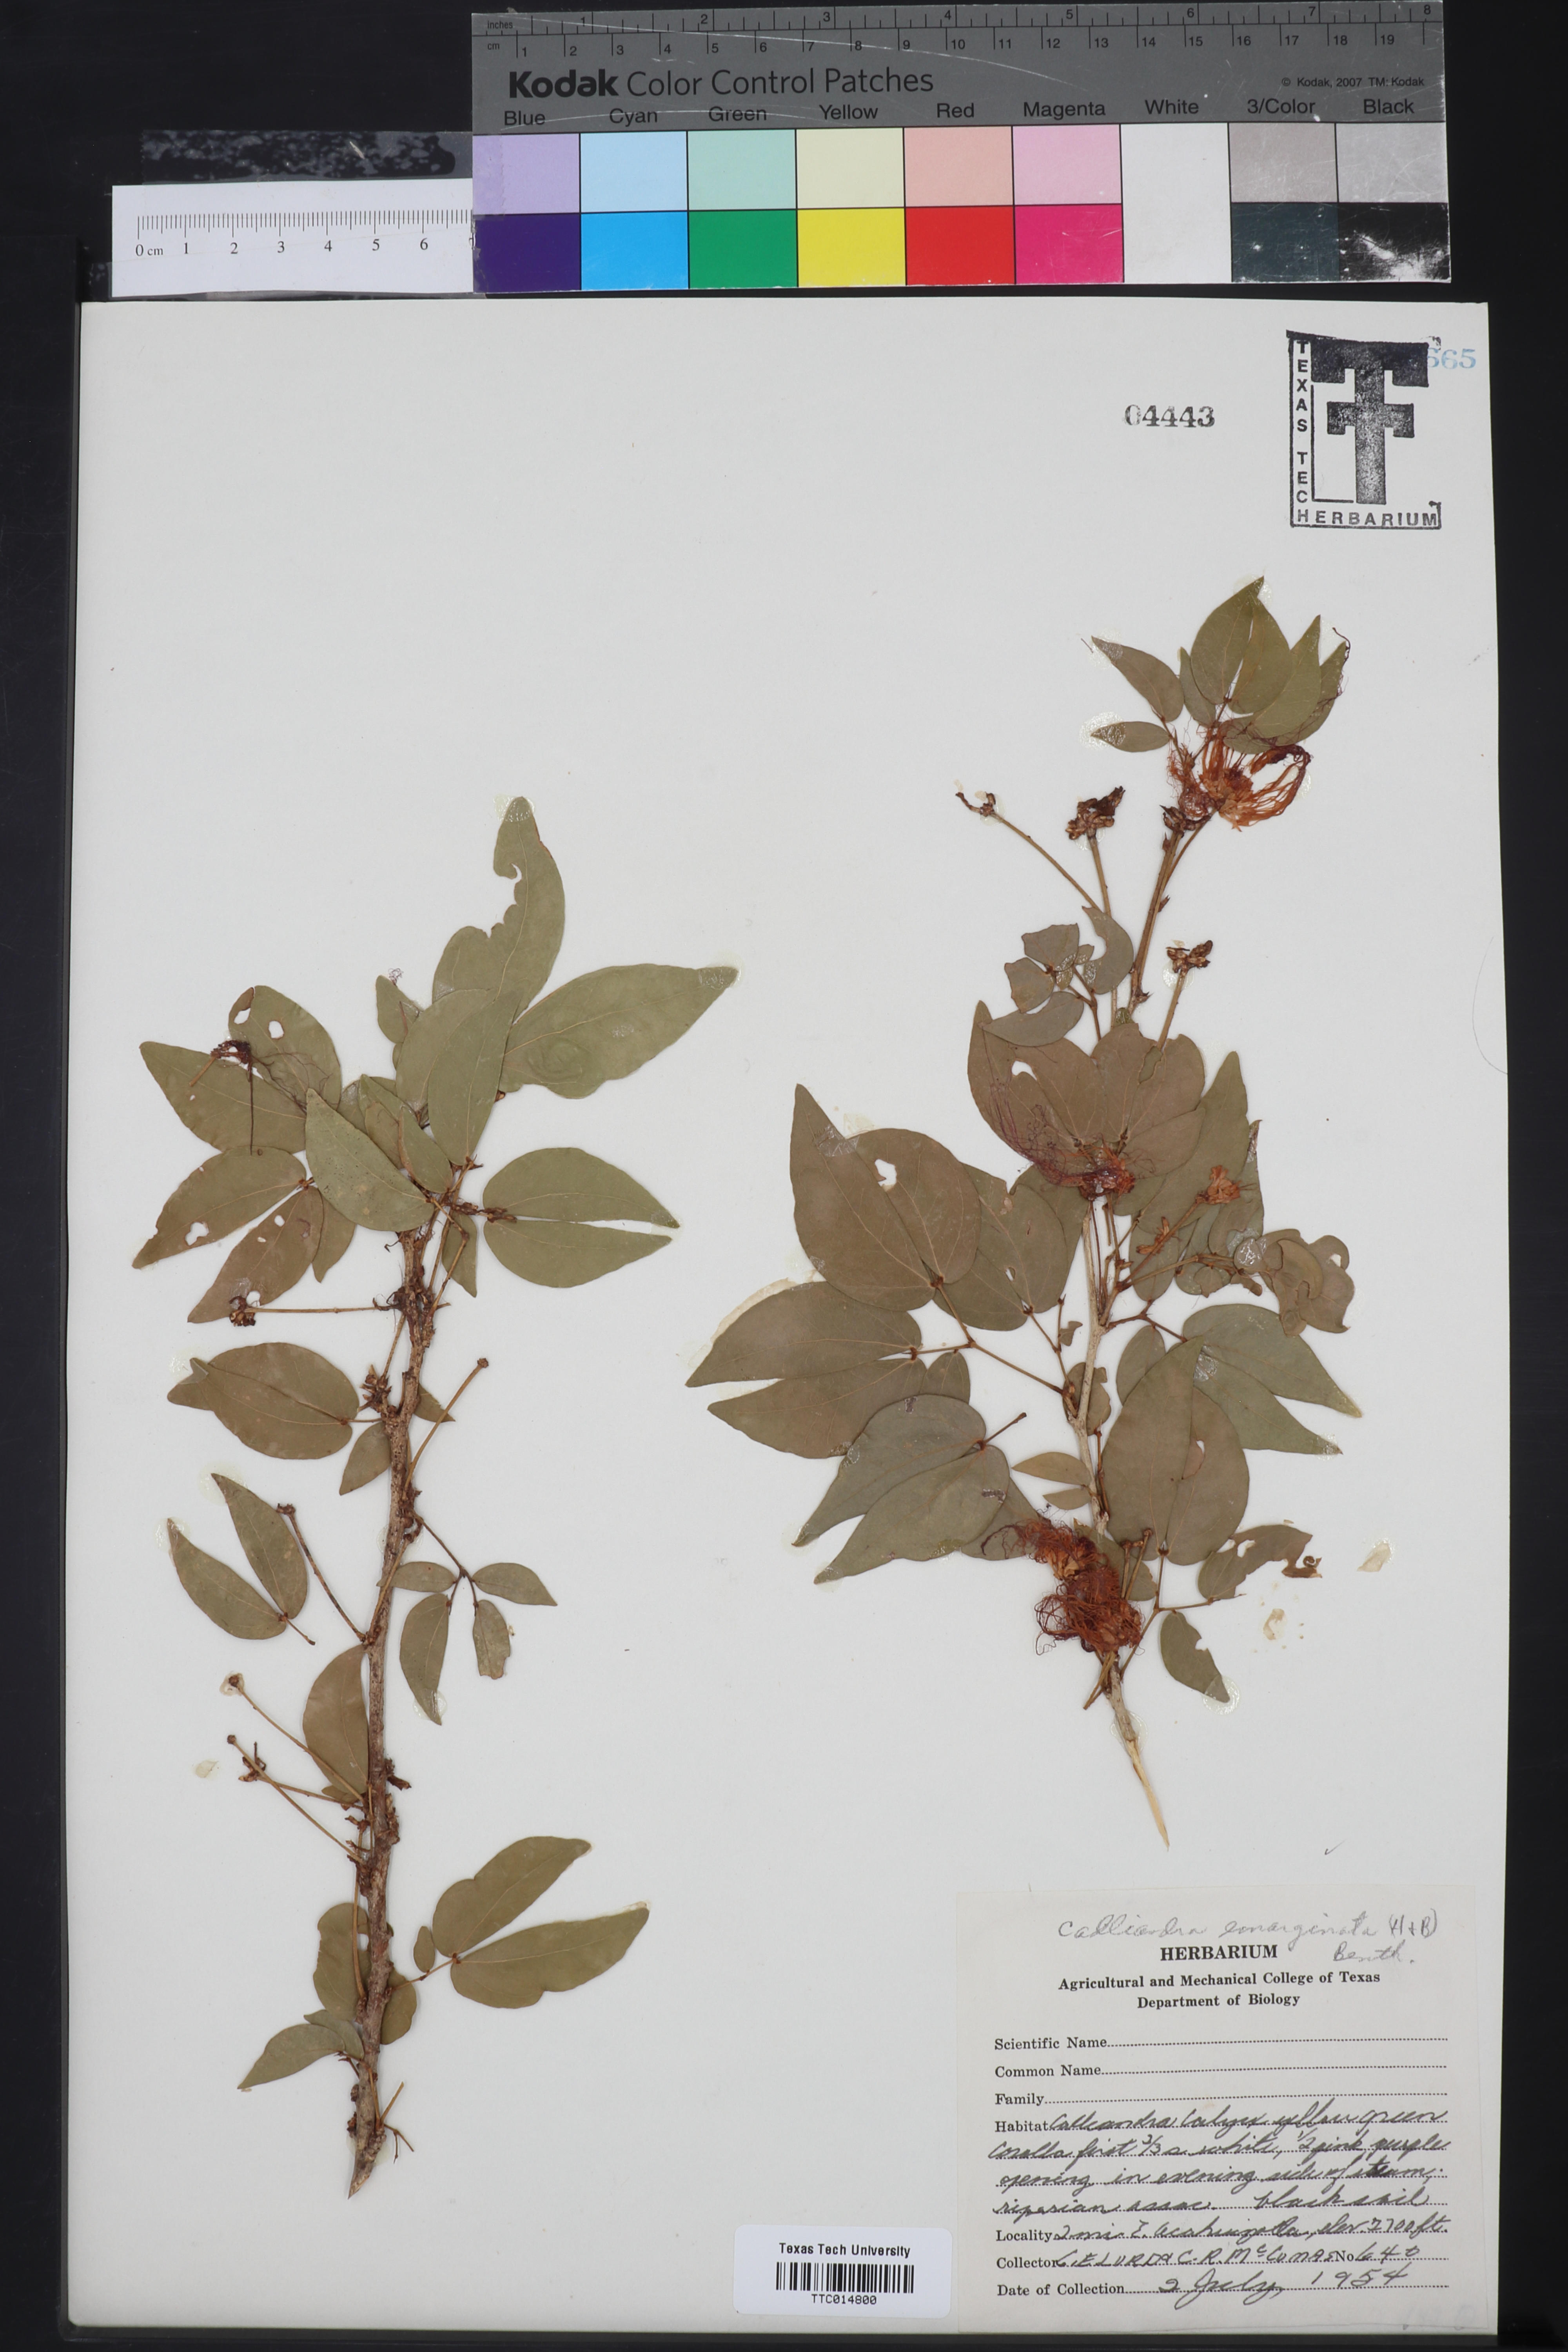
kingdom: Plantae
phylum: Tracheophyta
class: Magnoliopsida
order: Fabales
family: Fabaceae
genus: Calliandra
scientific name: Calliandra tergemina
